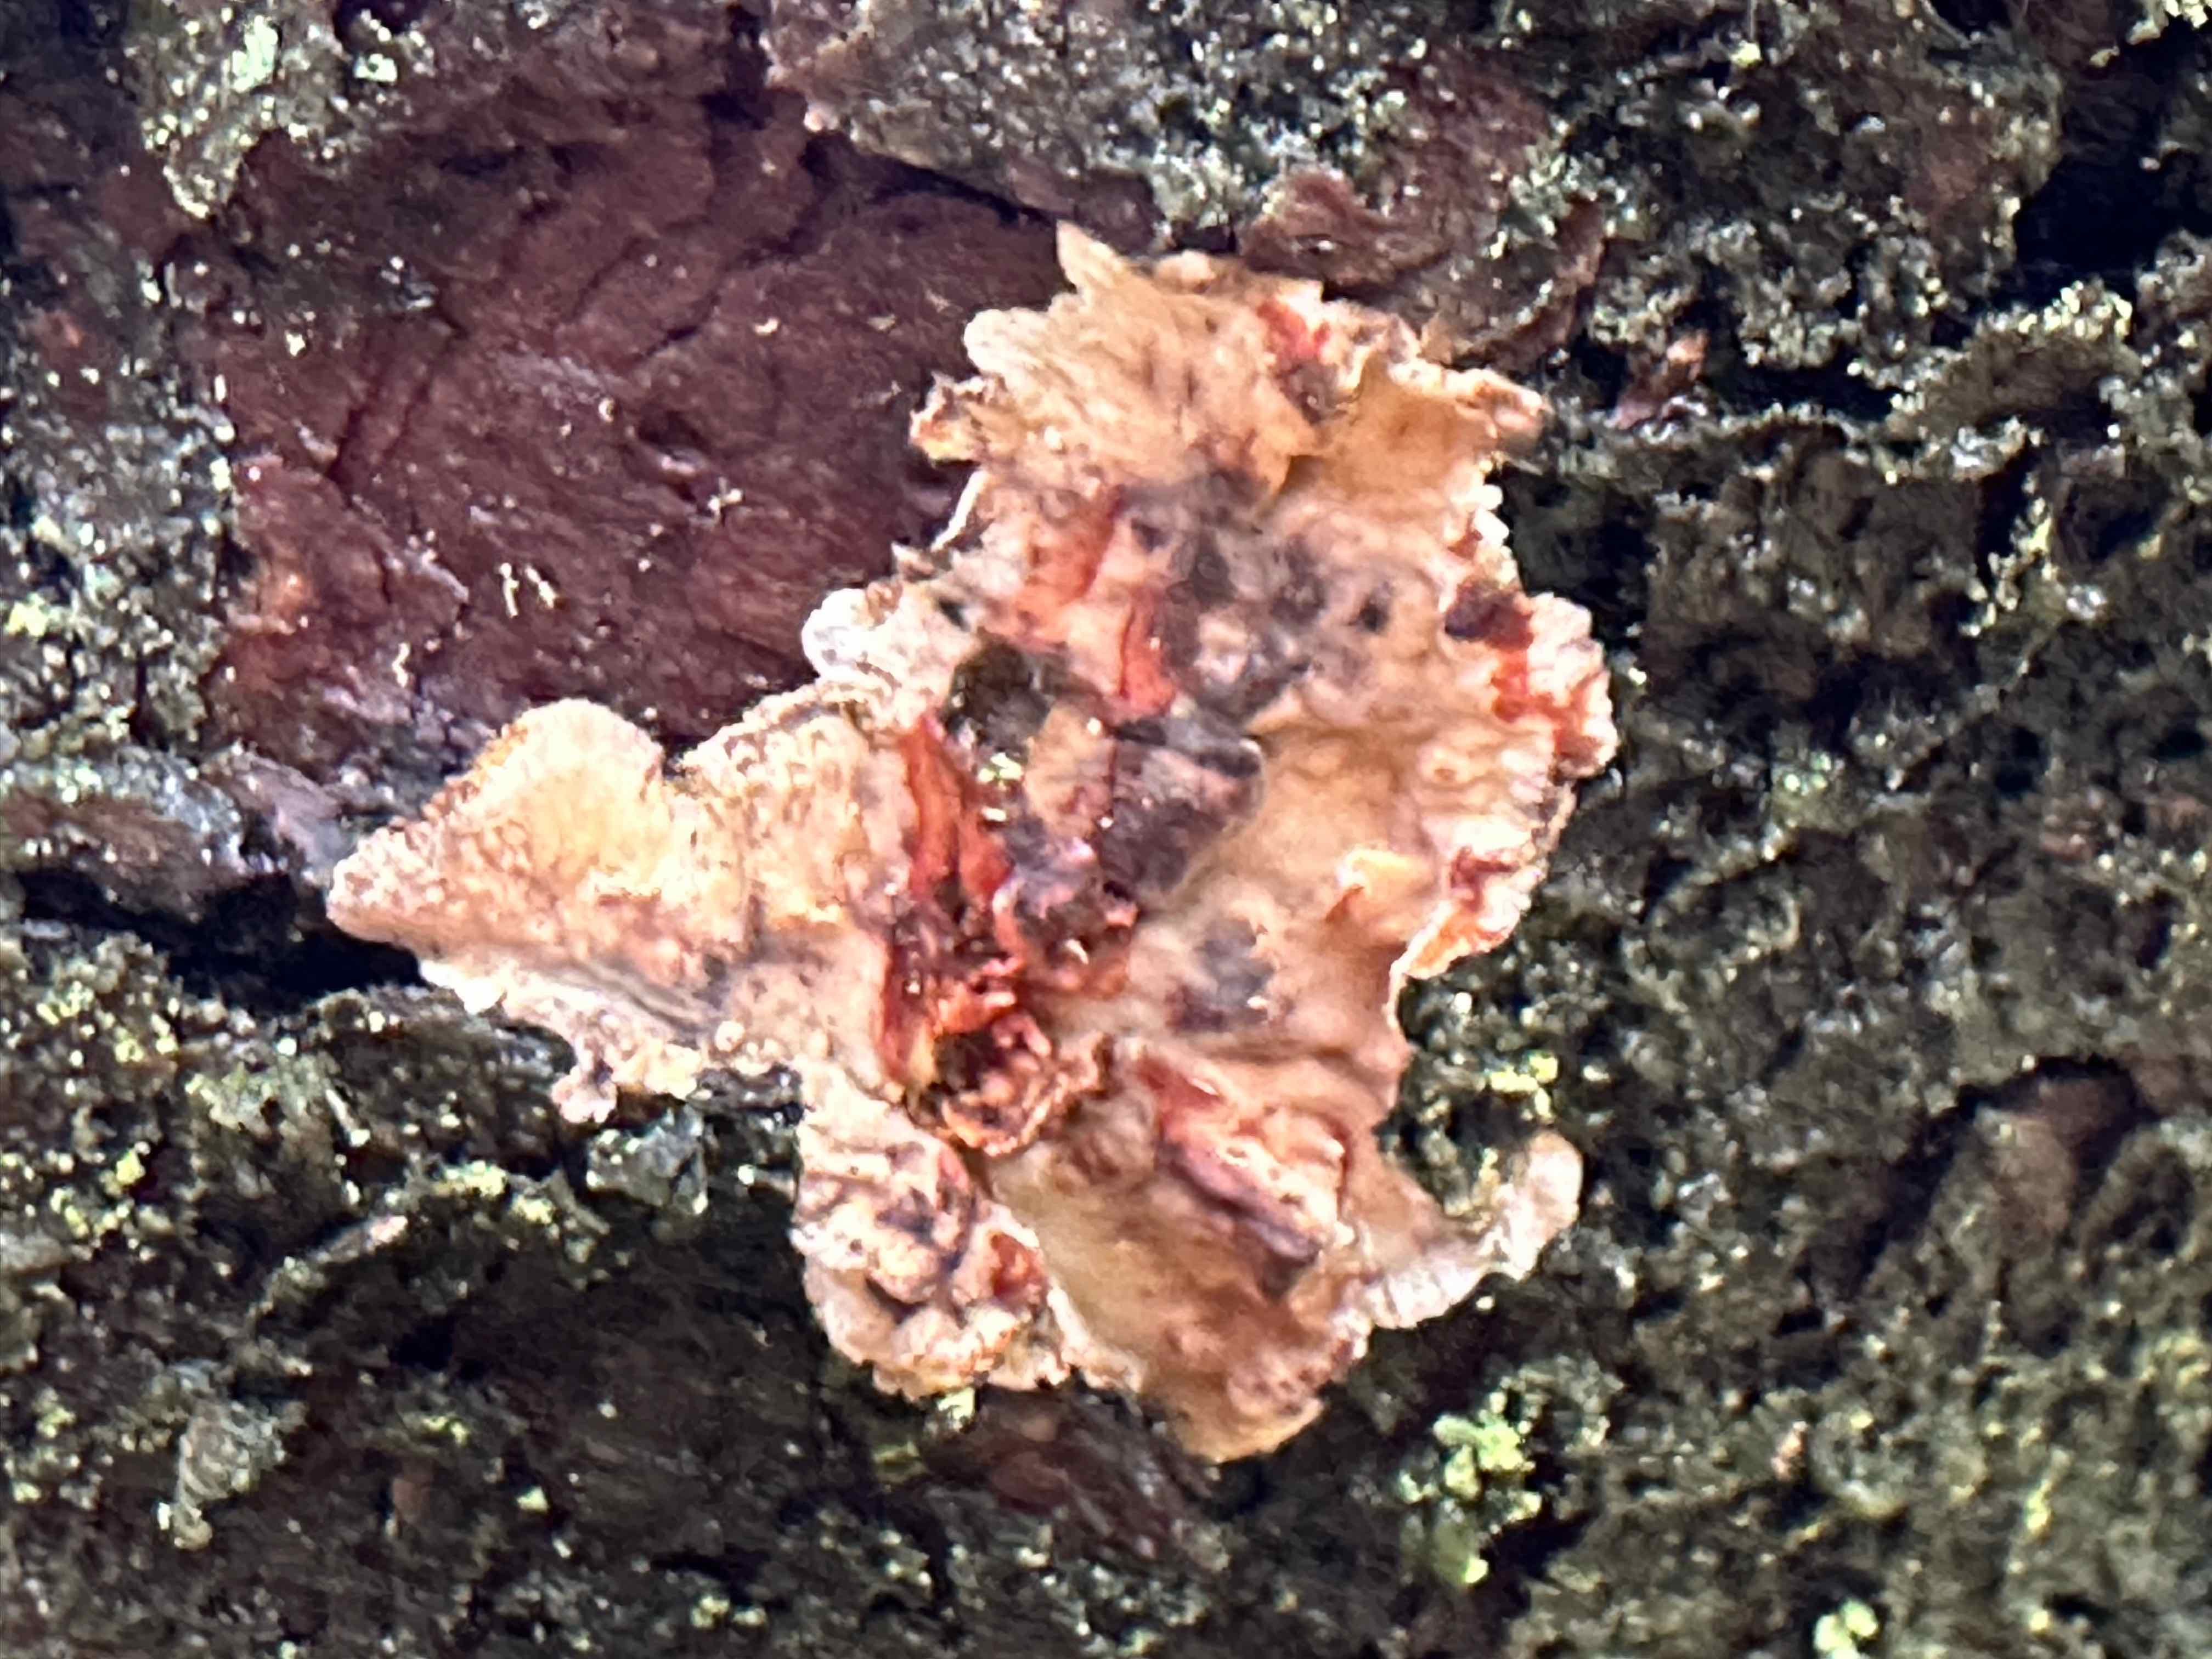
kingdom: Fungi
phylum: Basidiomycota
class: Agaricomycetes
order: Russulales
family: Stereaceae
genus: Stereum
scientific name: Stereum sanguinolentum
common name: blødende lædersvamp
